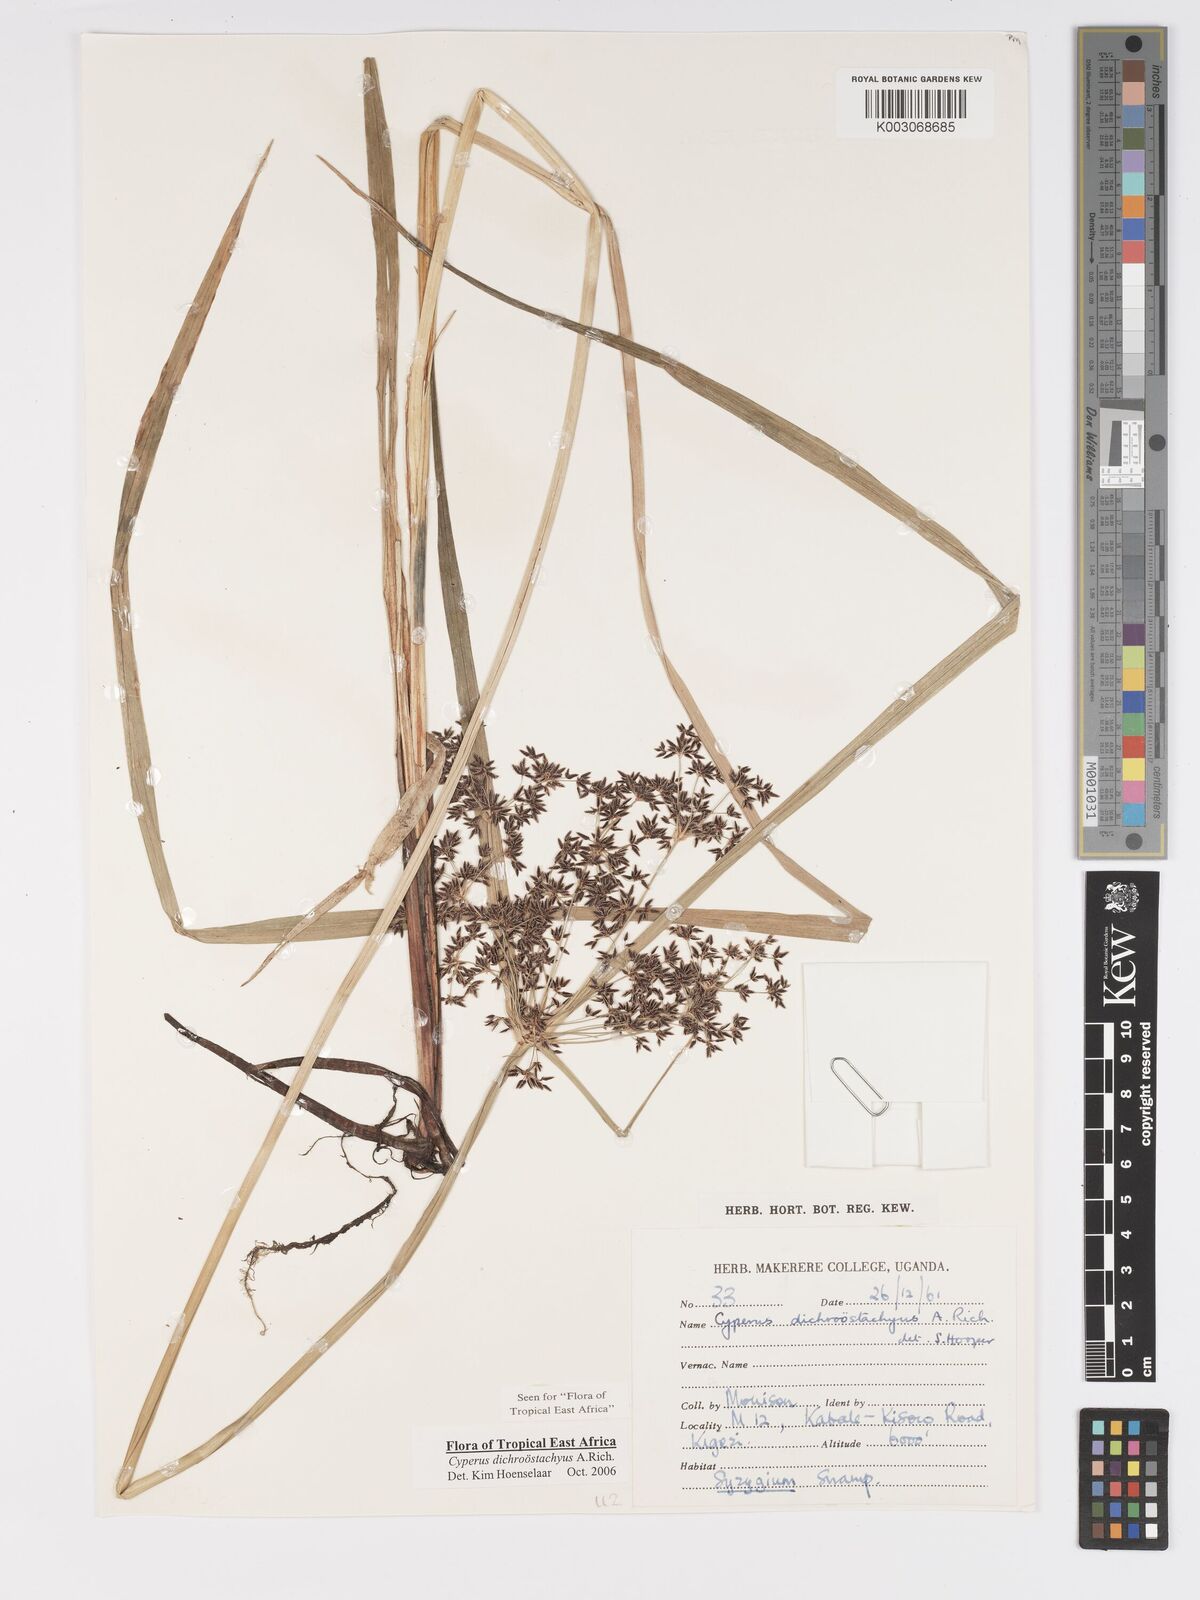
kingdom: Plantae
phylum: Tracheophyta
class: Liliopsida
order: Poales
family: Cyperaceae
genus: Cyperus
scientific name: Cyperus dichrostachyus
